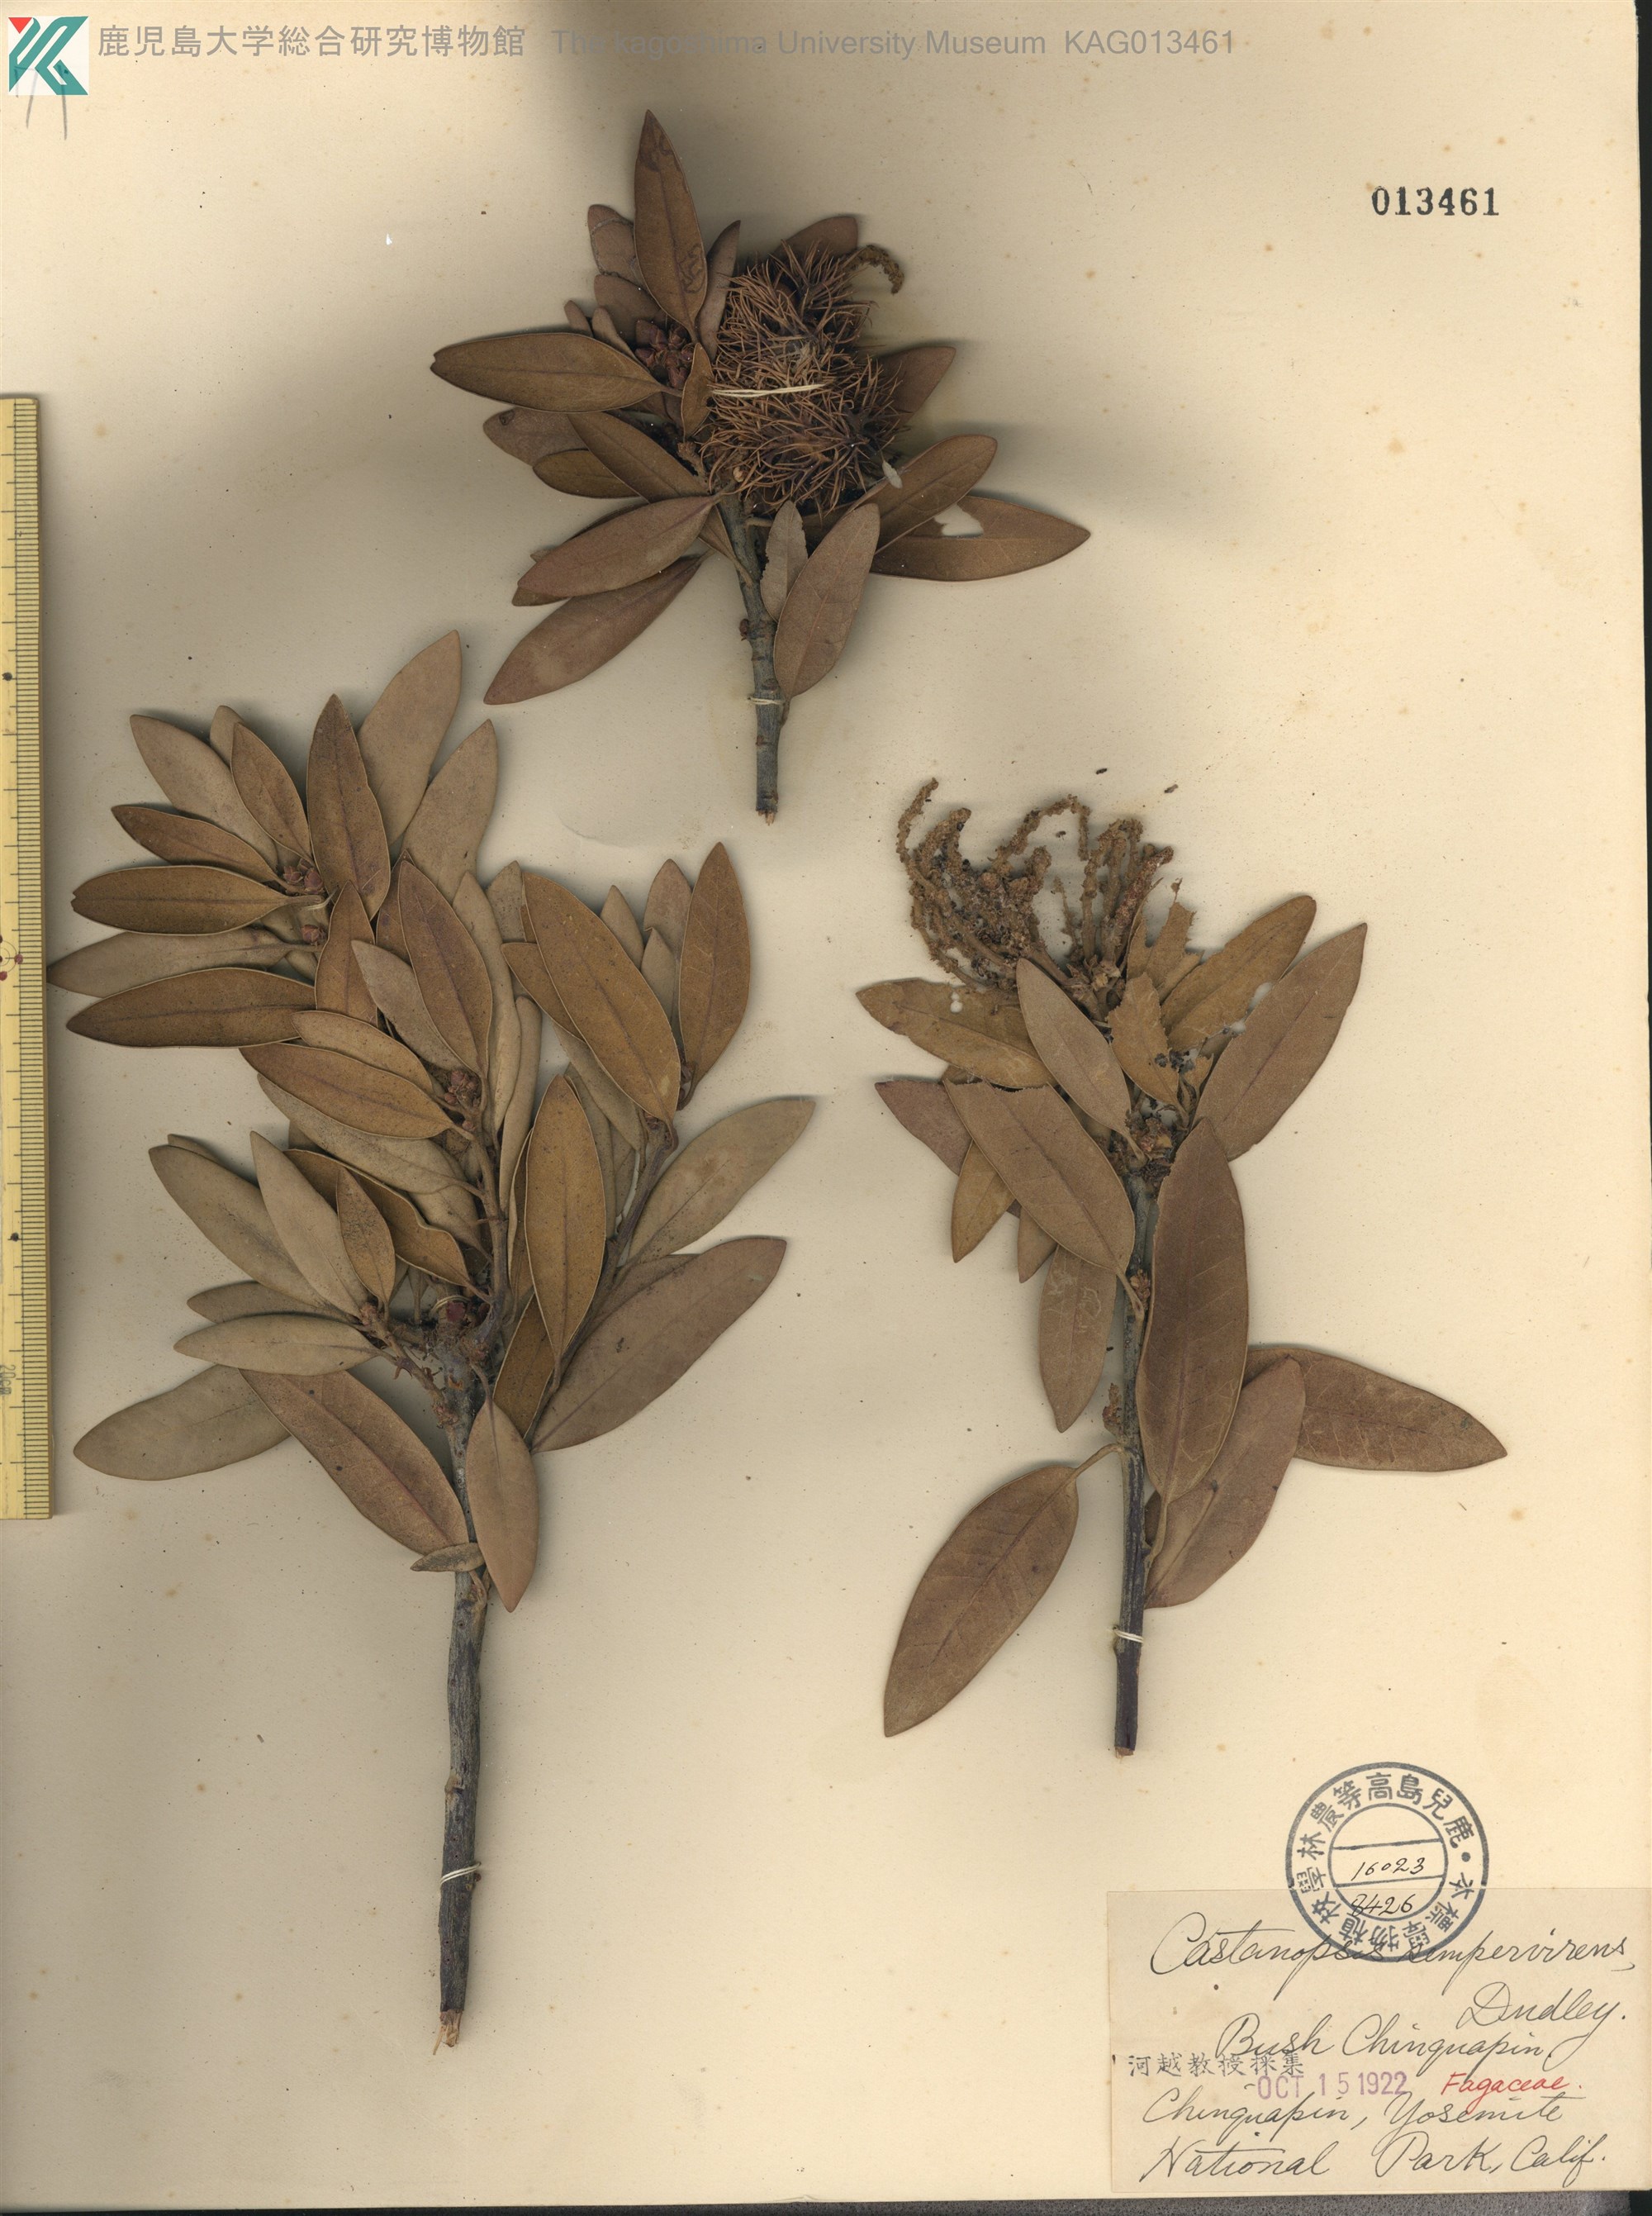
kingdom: Plantae
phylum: Tracheophyta
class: Magnoliopsida
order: Fagales
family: Fagaceae
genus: Chrysolepis
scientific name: Chrysolepis sempervirens
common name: Bush chinquapin
